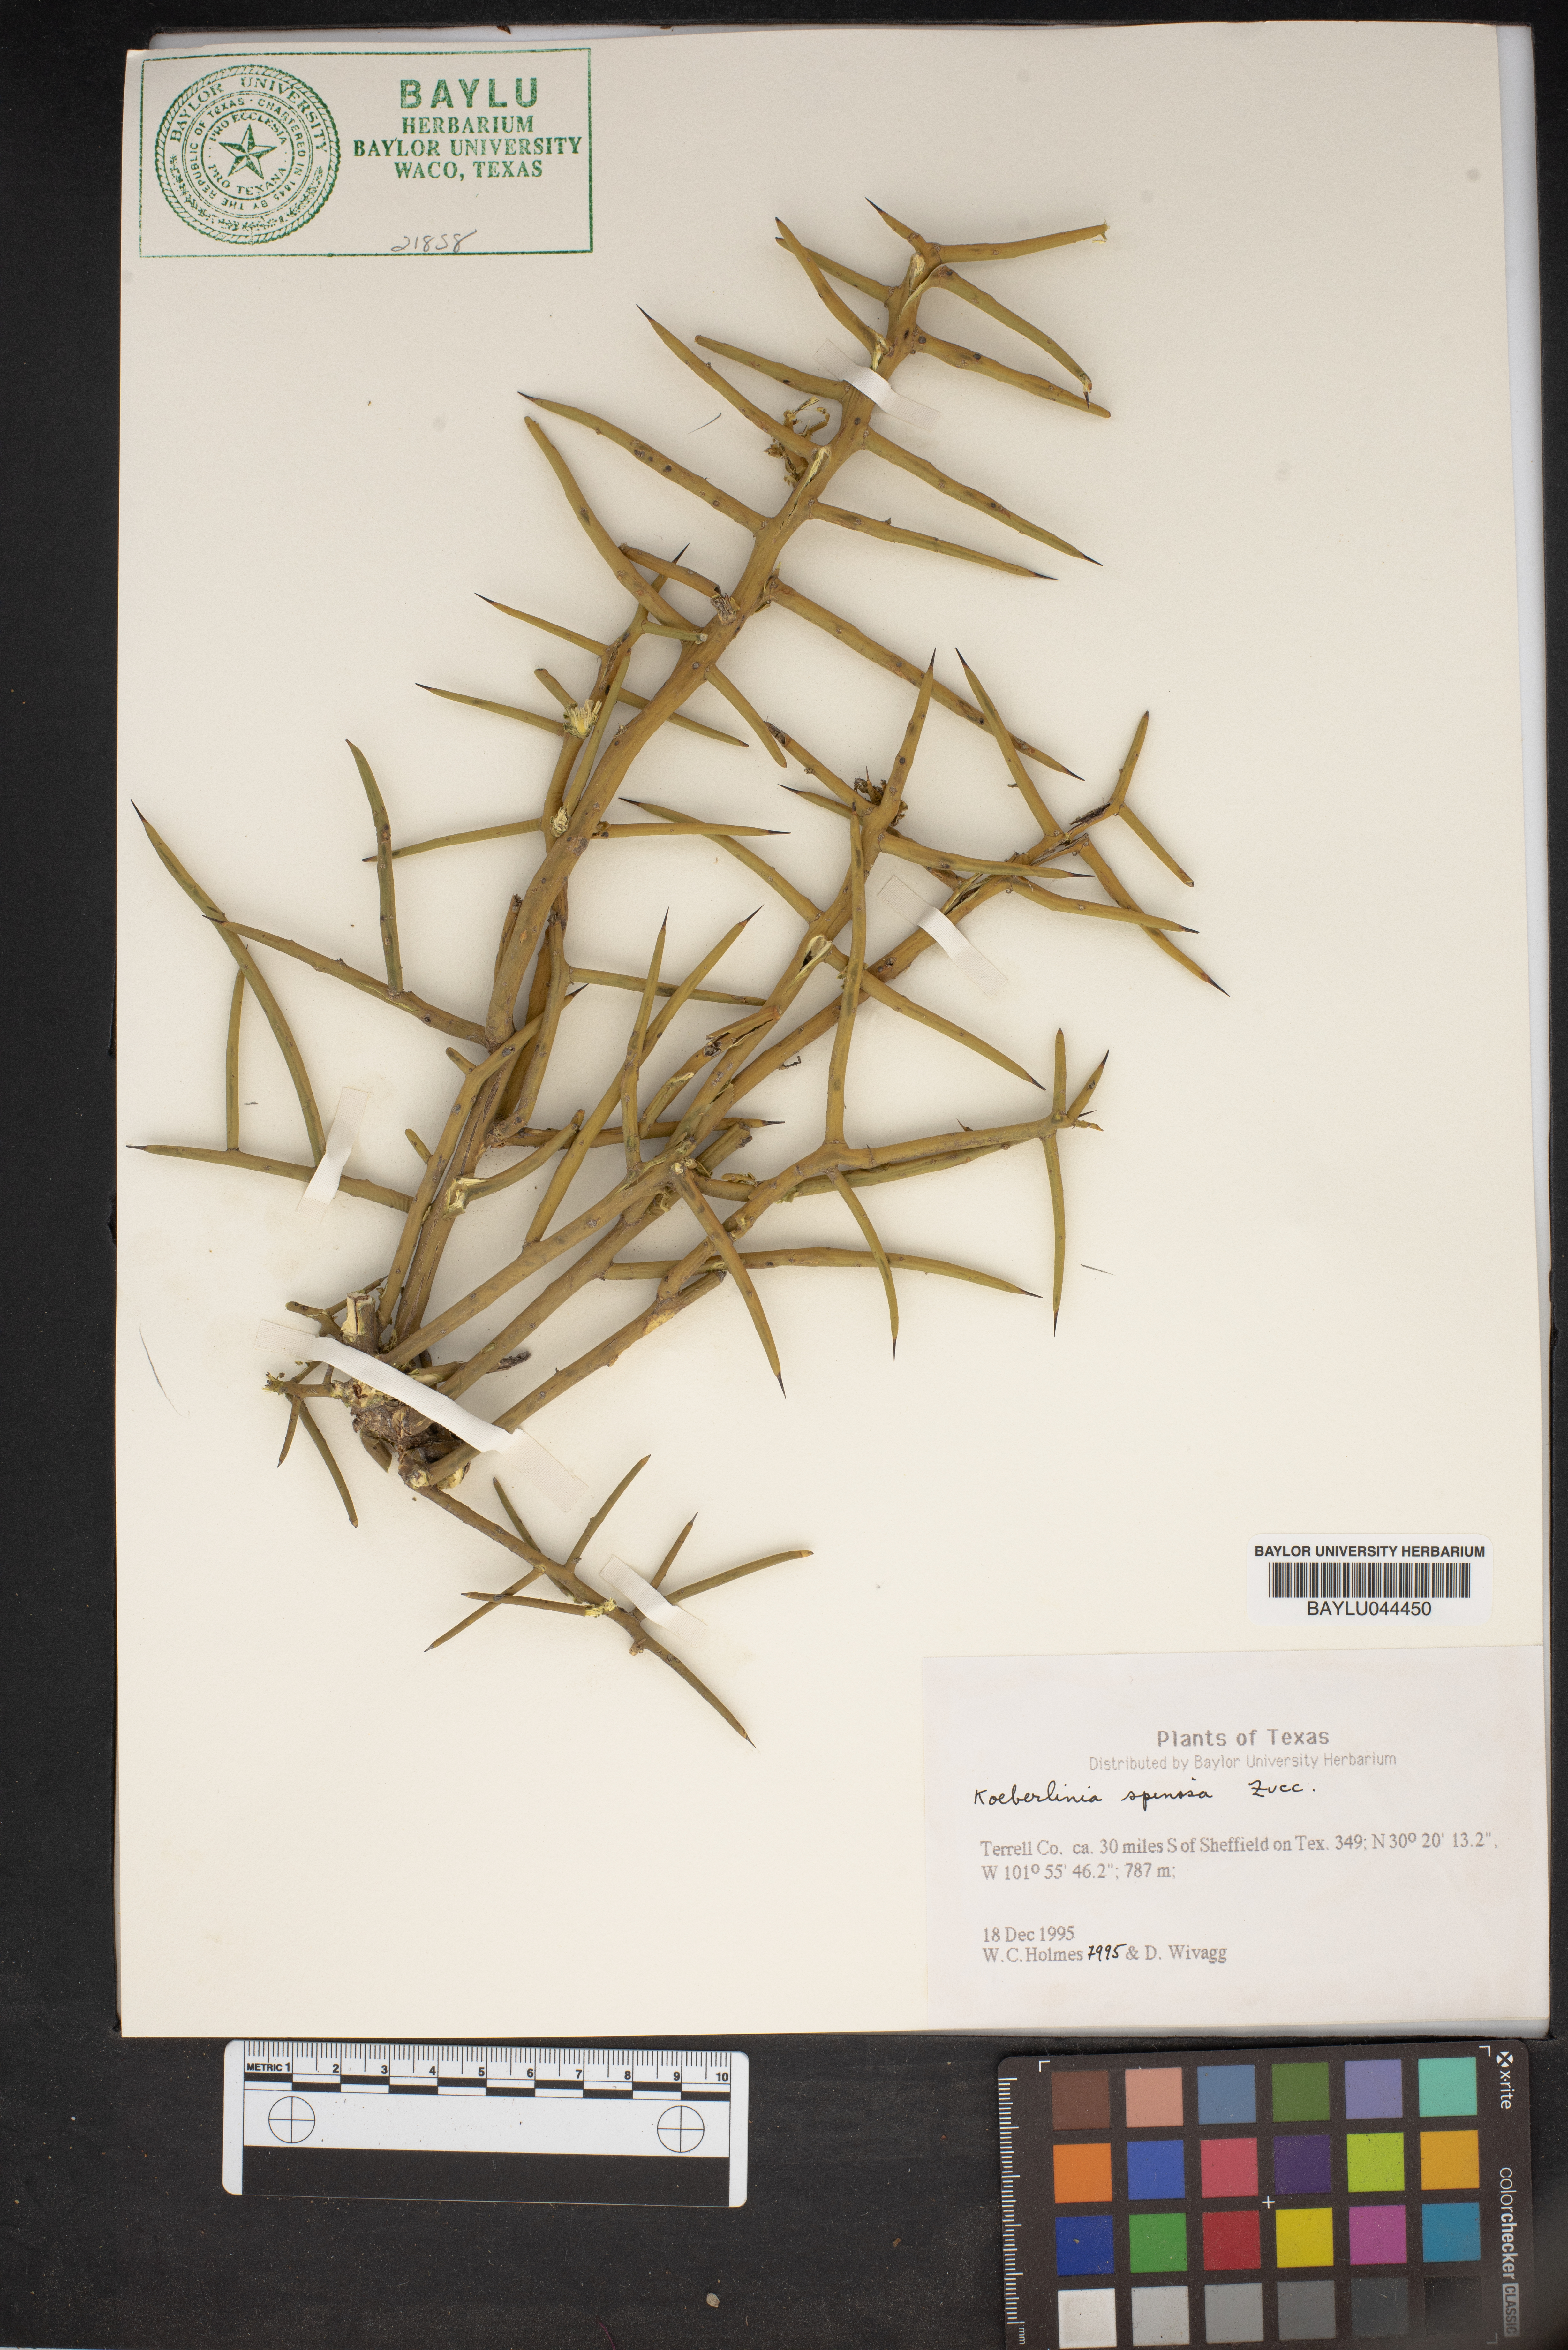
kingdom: Plantae
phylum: Tracheophyta
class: Magnoliopsida
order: Brassicales
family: Koeberliniaceae
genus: Koeberlinia
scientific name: Koeberlinia spinosa
